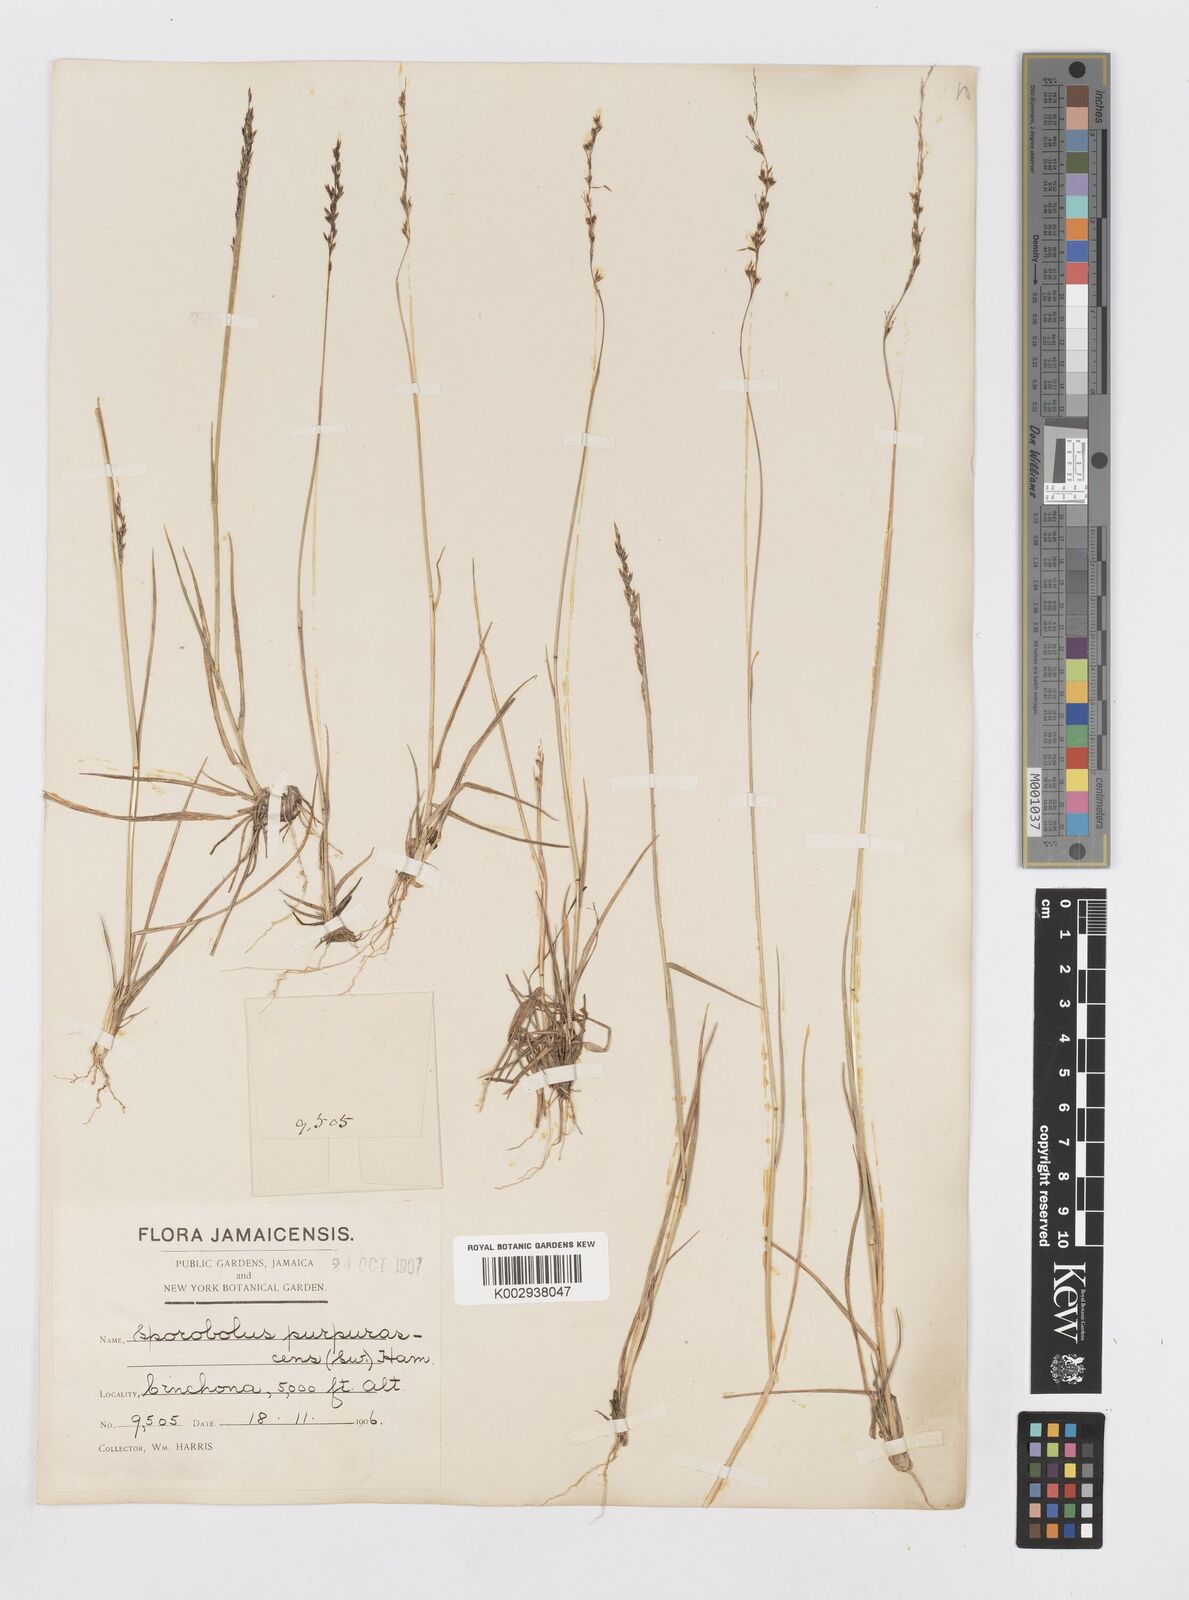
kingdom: Plantae
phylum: Tracheophyta
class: Liliopsida
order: Poales
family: Poaceae
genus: Sporobolus
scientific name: Sporobolus purpurascens
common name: Purple dropseed
